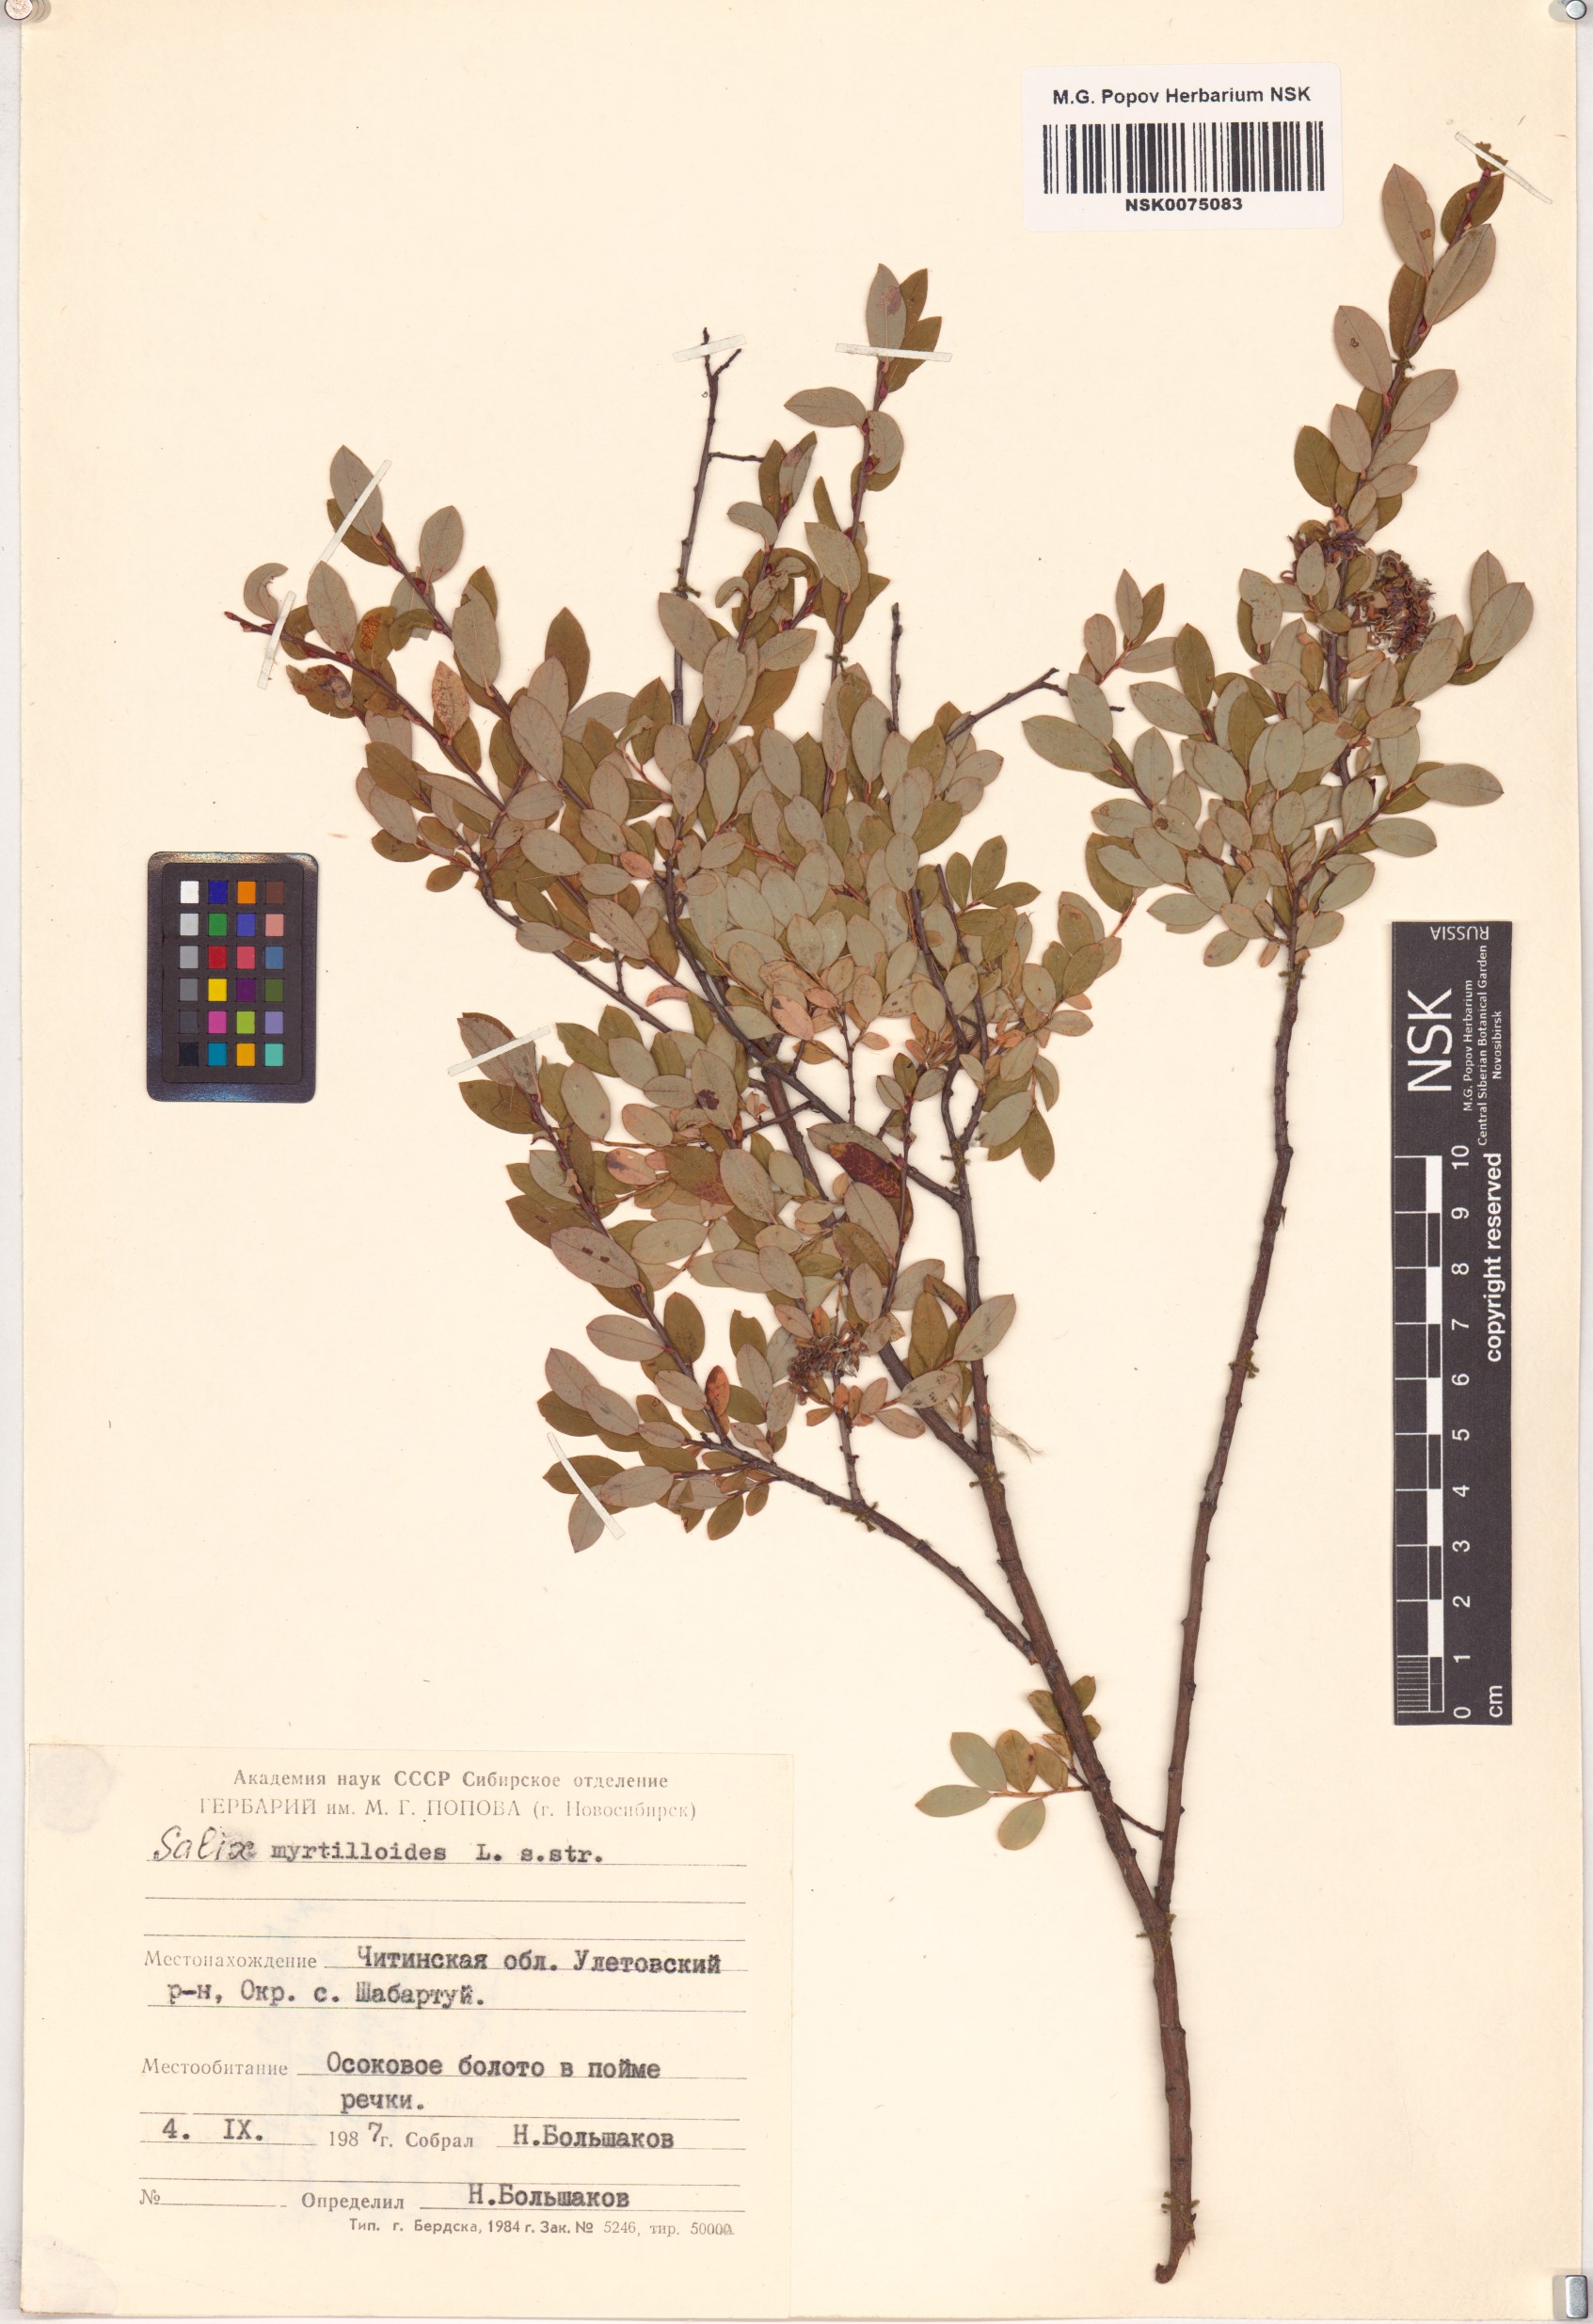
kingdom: Plantae
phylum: Tracheophyta
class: Magnoliopsida
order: Malpighiales
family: Salicaceae
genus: Salix
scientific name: Salix myrtilloides
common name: Myrtle-leaved willow
